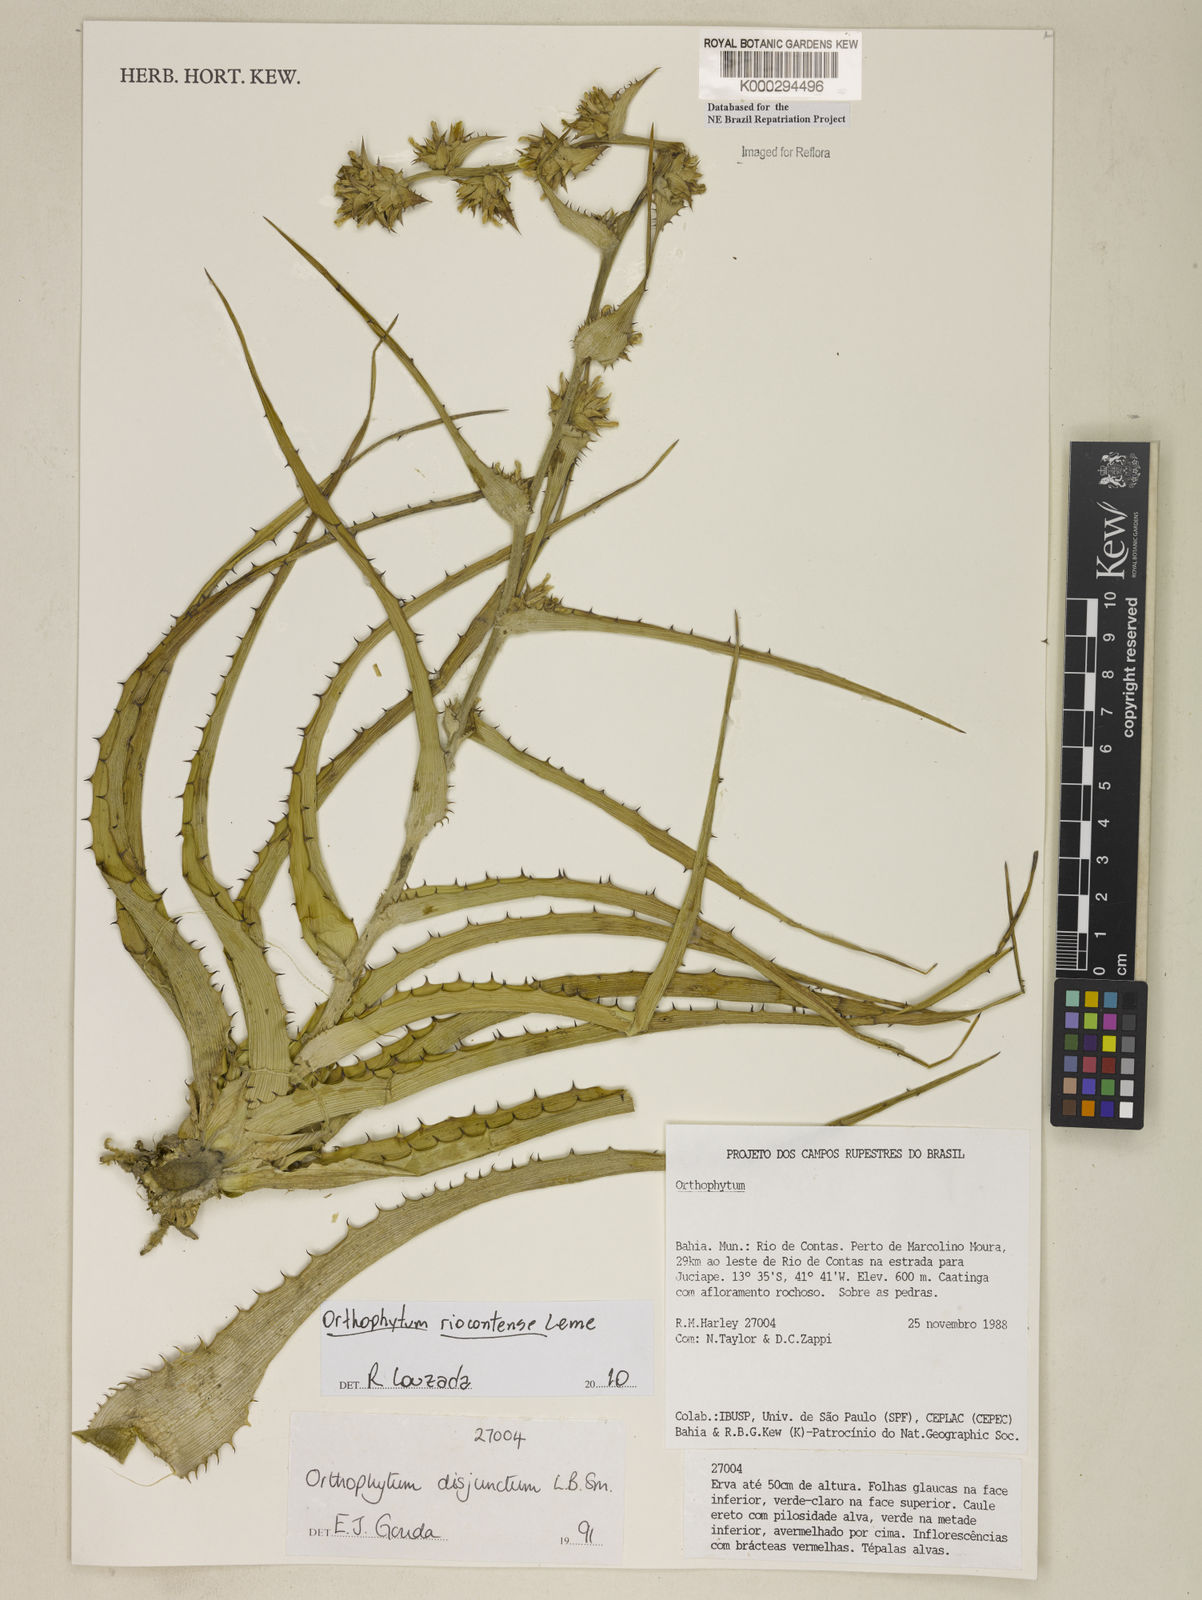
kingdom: Plantae
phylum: Tracheophyta
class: Liliopsida
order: Poales
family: Bromeliaceae
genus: Orthophytum
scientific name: Orthophytum disjunctum
